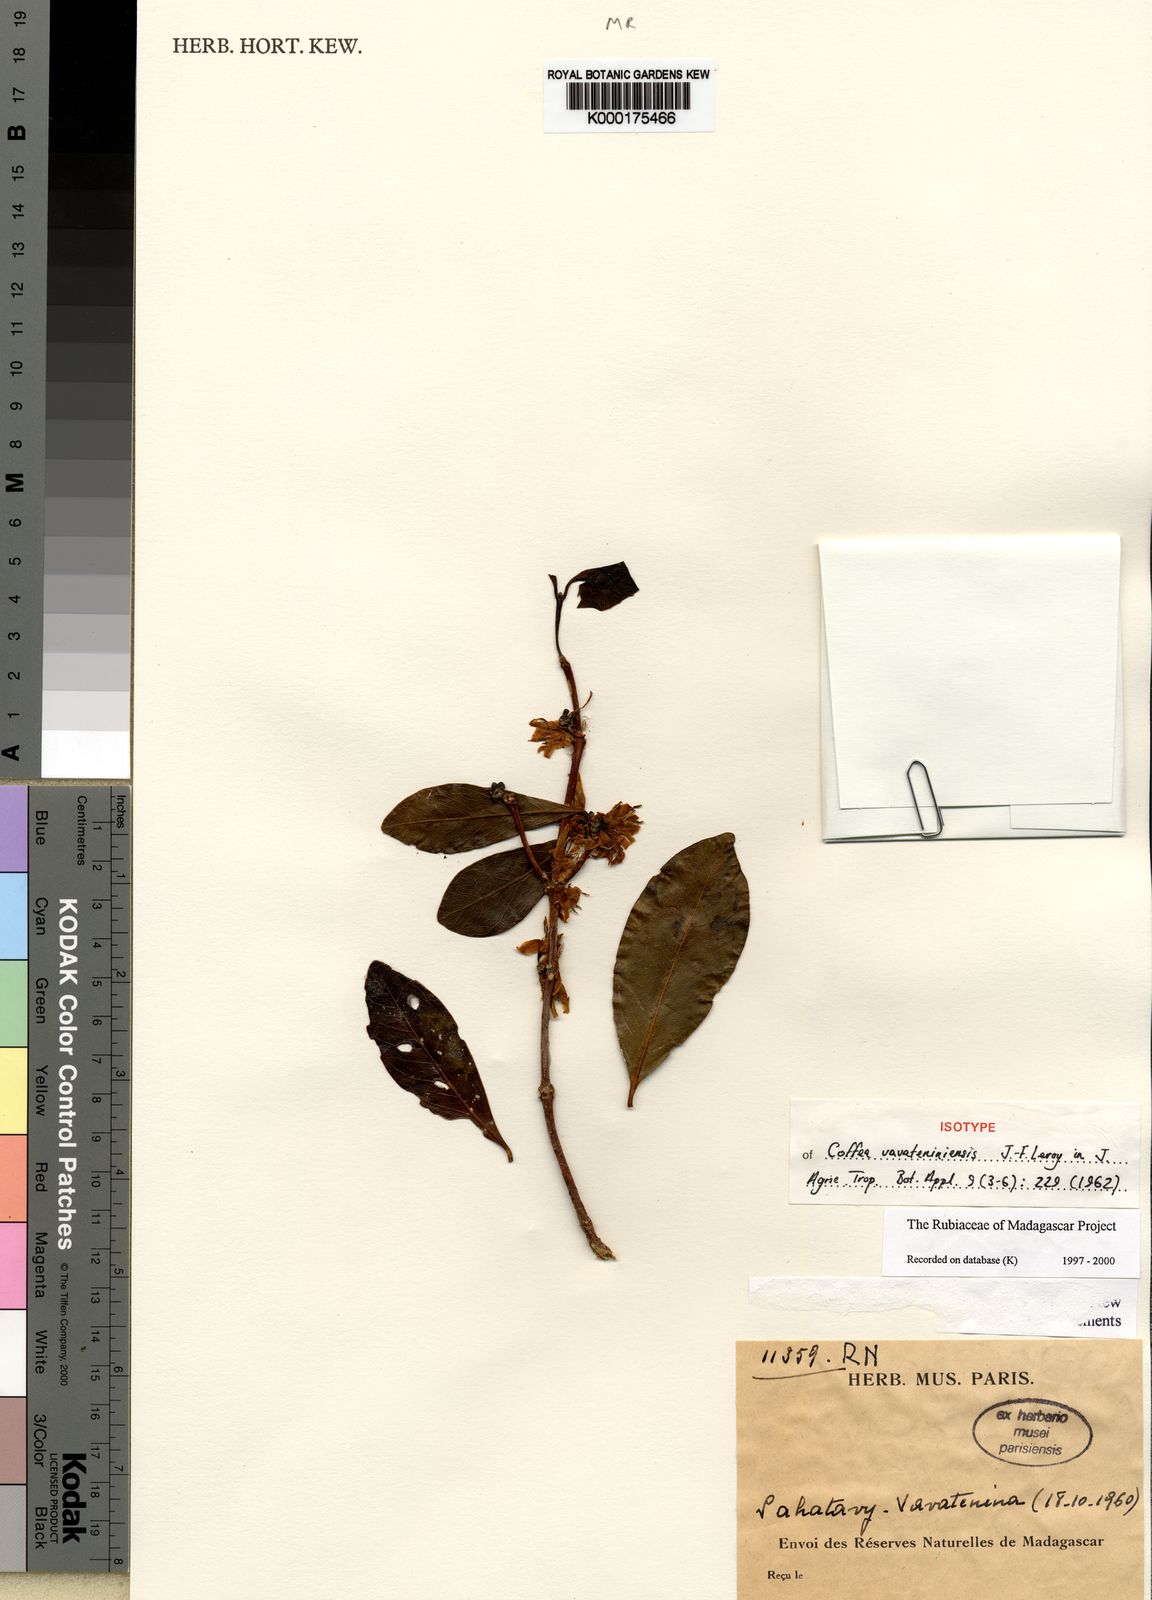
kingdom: Plantae
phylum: Tracheophyta
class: Magnoliopsida
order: Gentianales
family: Rubiaceae
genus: Coffea
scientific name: Coffea vavateninensis
